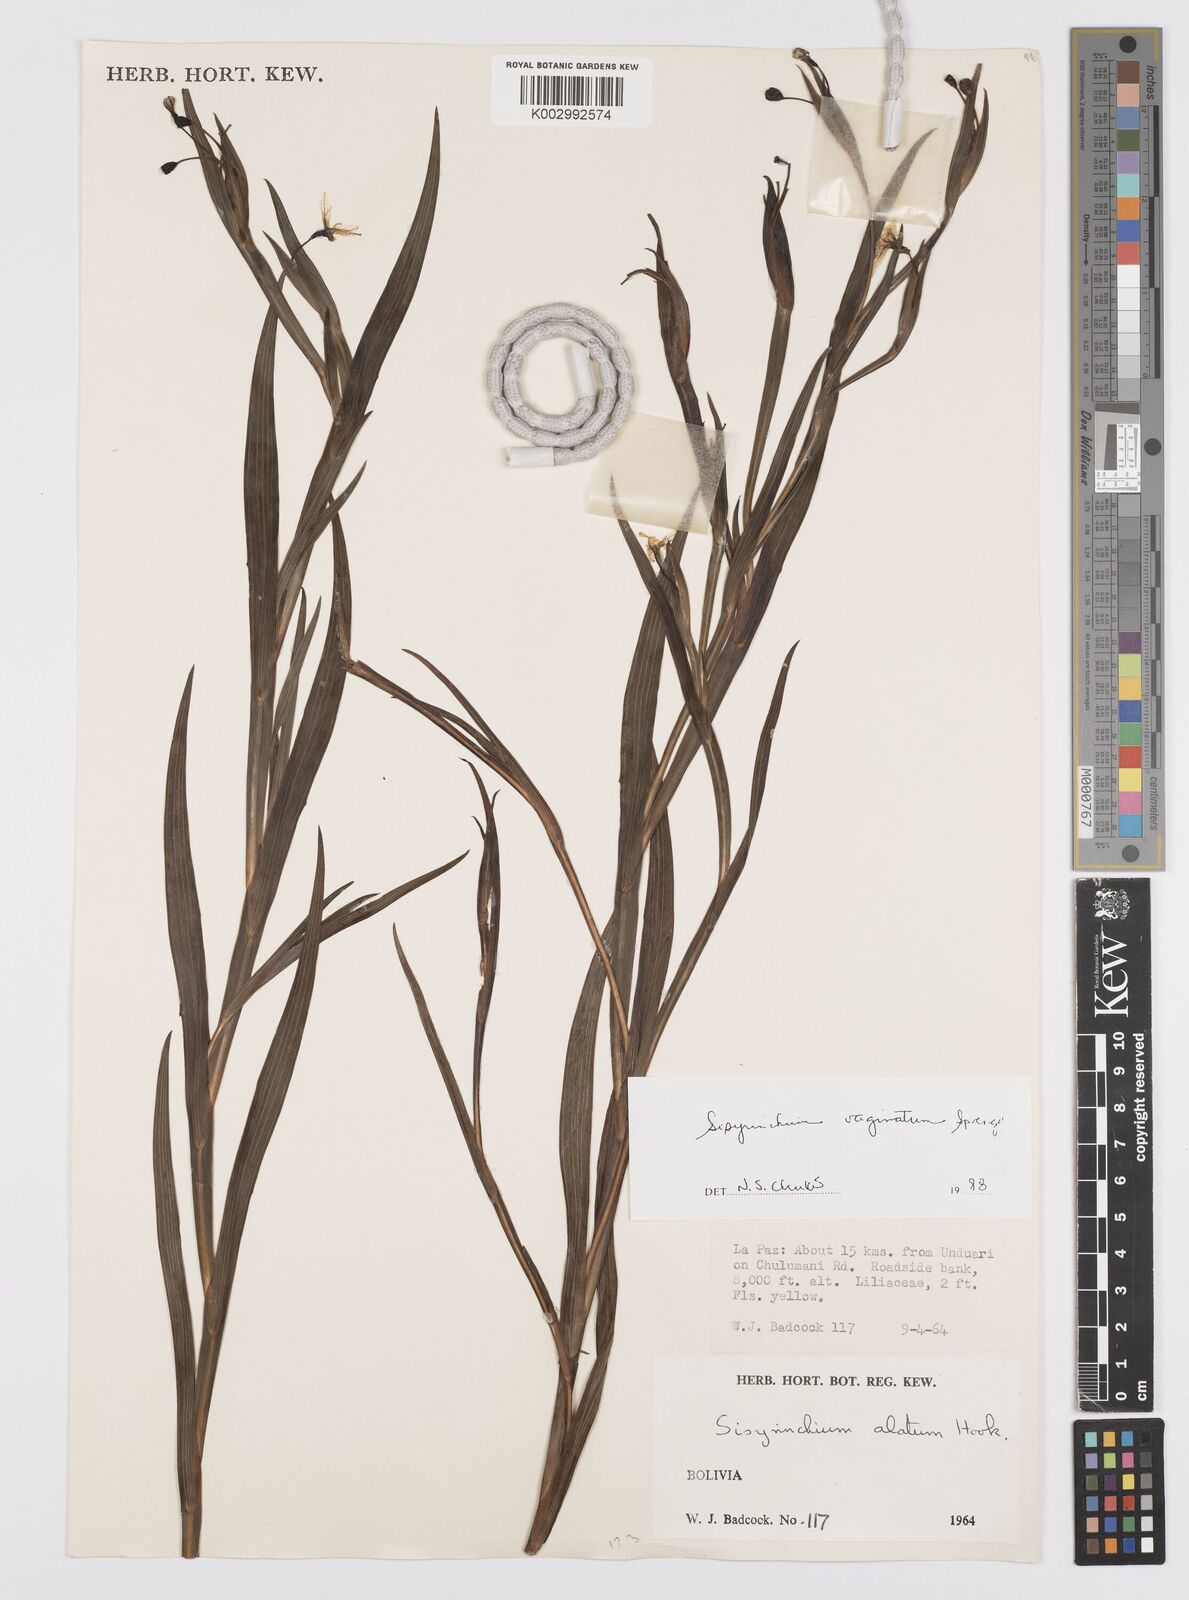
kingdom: Plantae
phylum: Tracheophyta
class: Liliopsida
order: Asparagales
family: Iridaceae
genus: Sisyrinchium
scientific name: Sisyrinchium vaginatum
